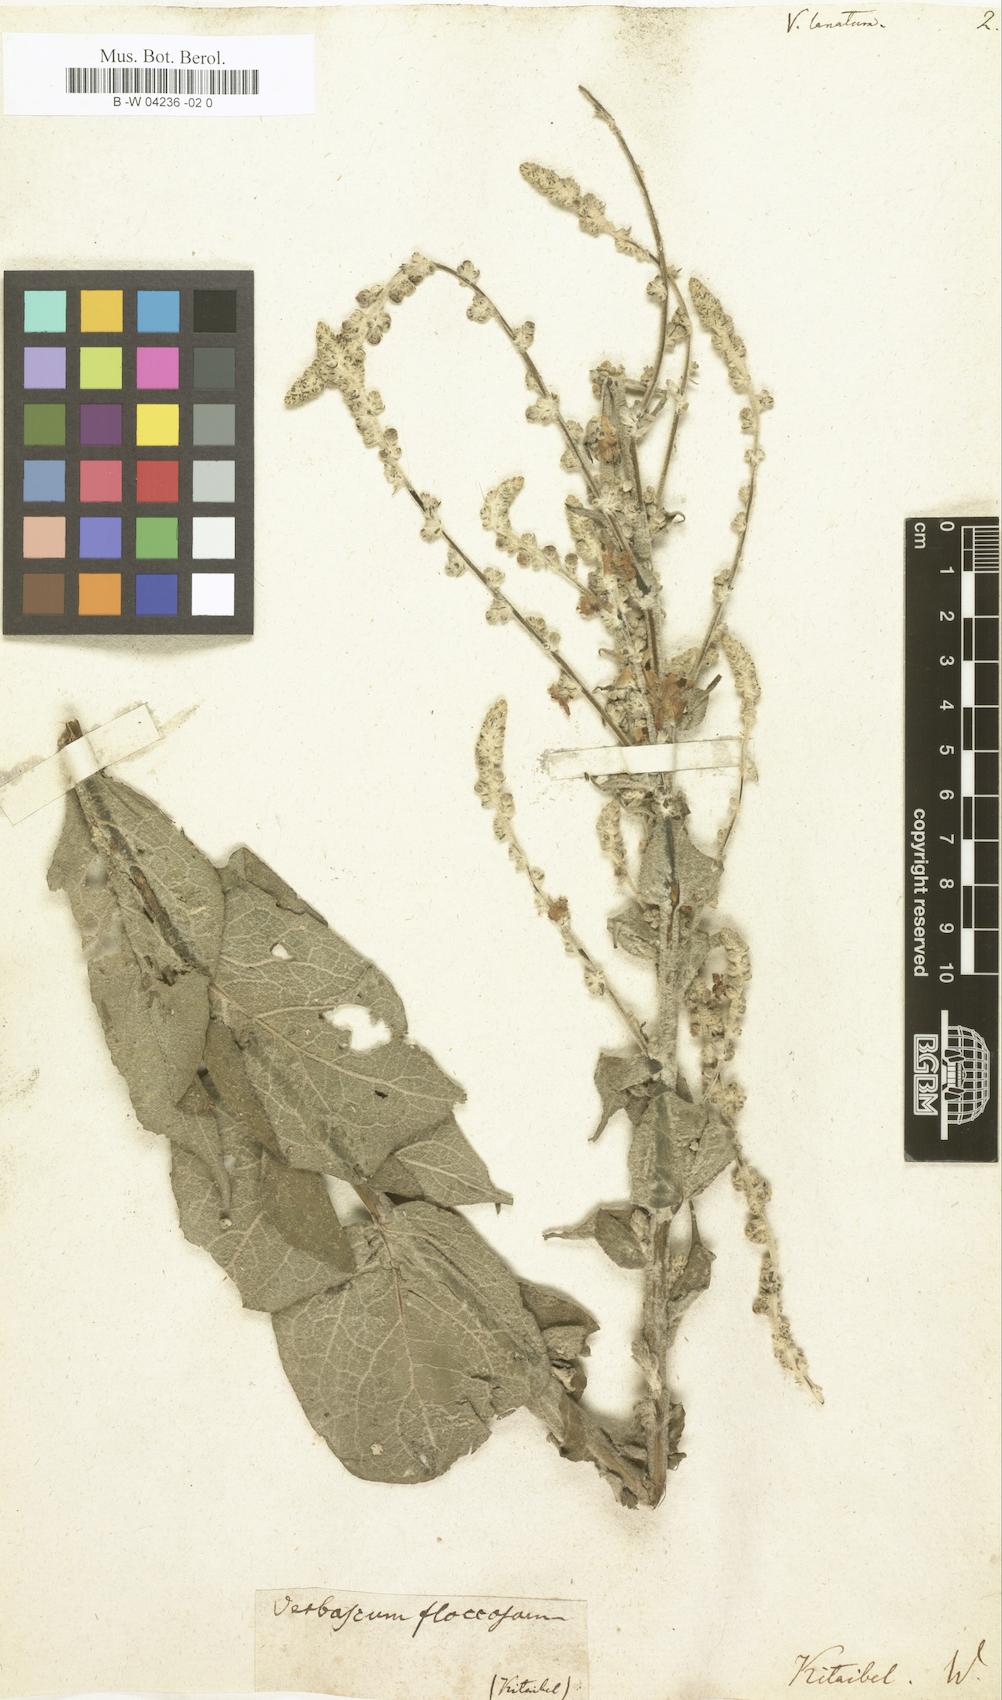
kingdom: Plantae
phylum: Tracheophyta
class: Magnoliopsida
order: Lamiales
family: Scrophulariaceae
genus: Verbascum
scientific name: Verbascum
